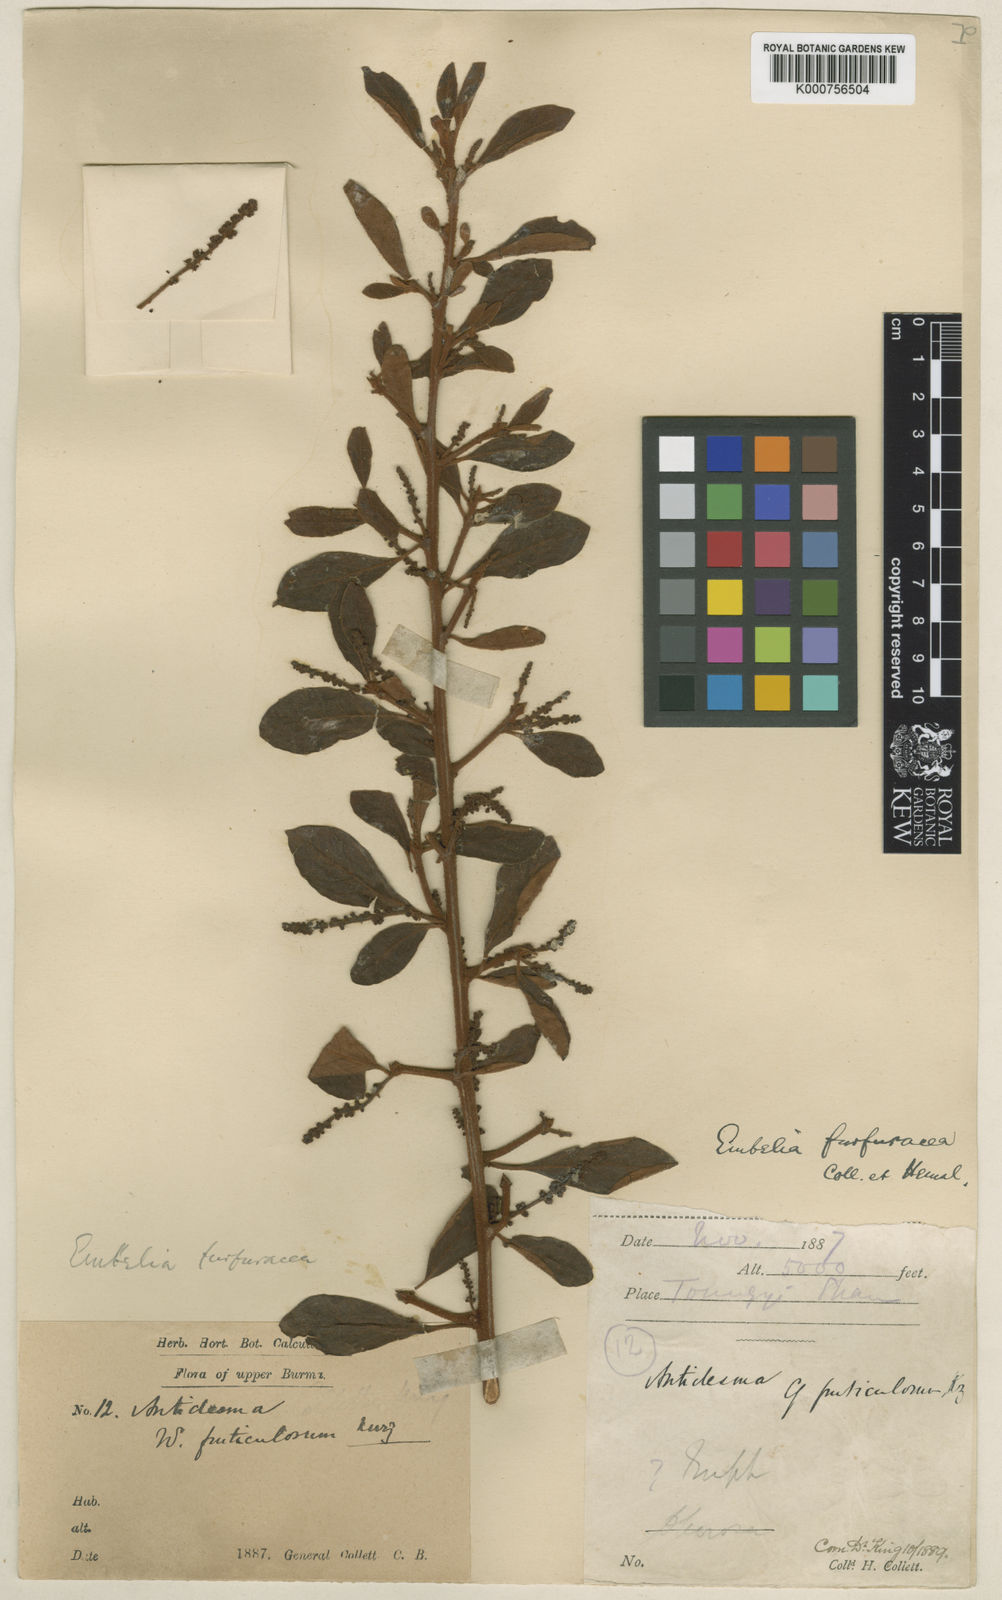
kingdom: Plantae
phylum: Tracheophyta
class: Magnoliopsida
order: Ericales
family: Primulaceae
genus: Embelia
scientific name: Embelia furfuracea
